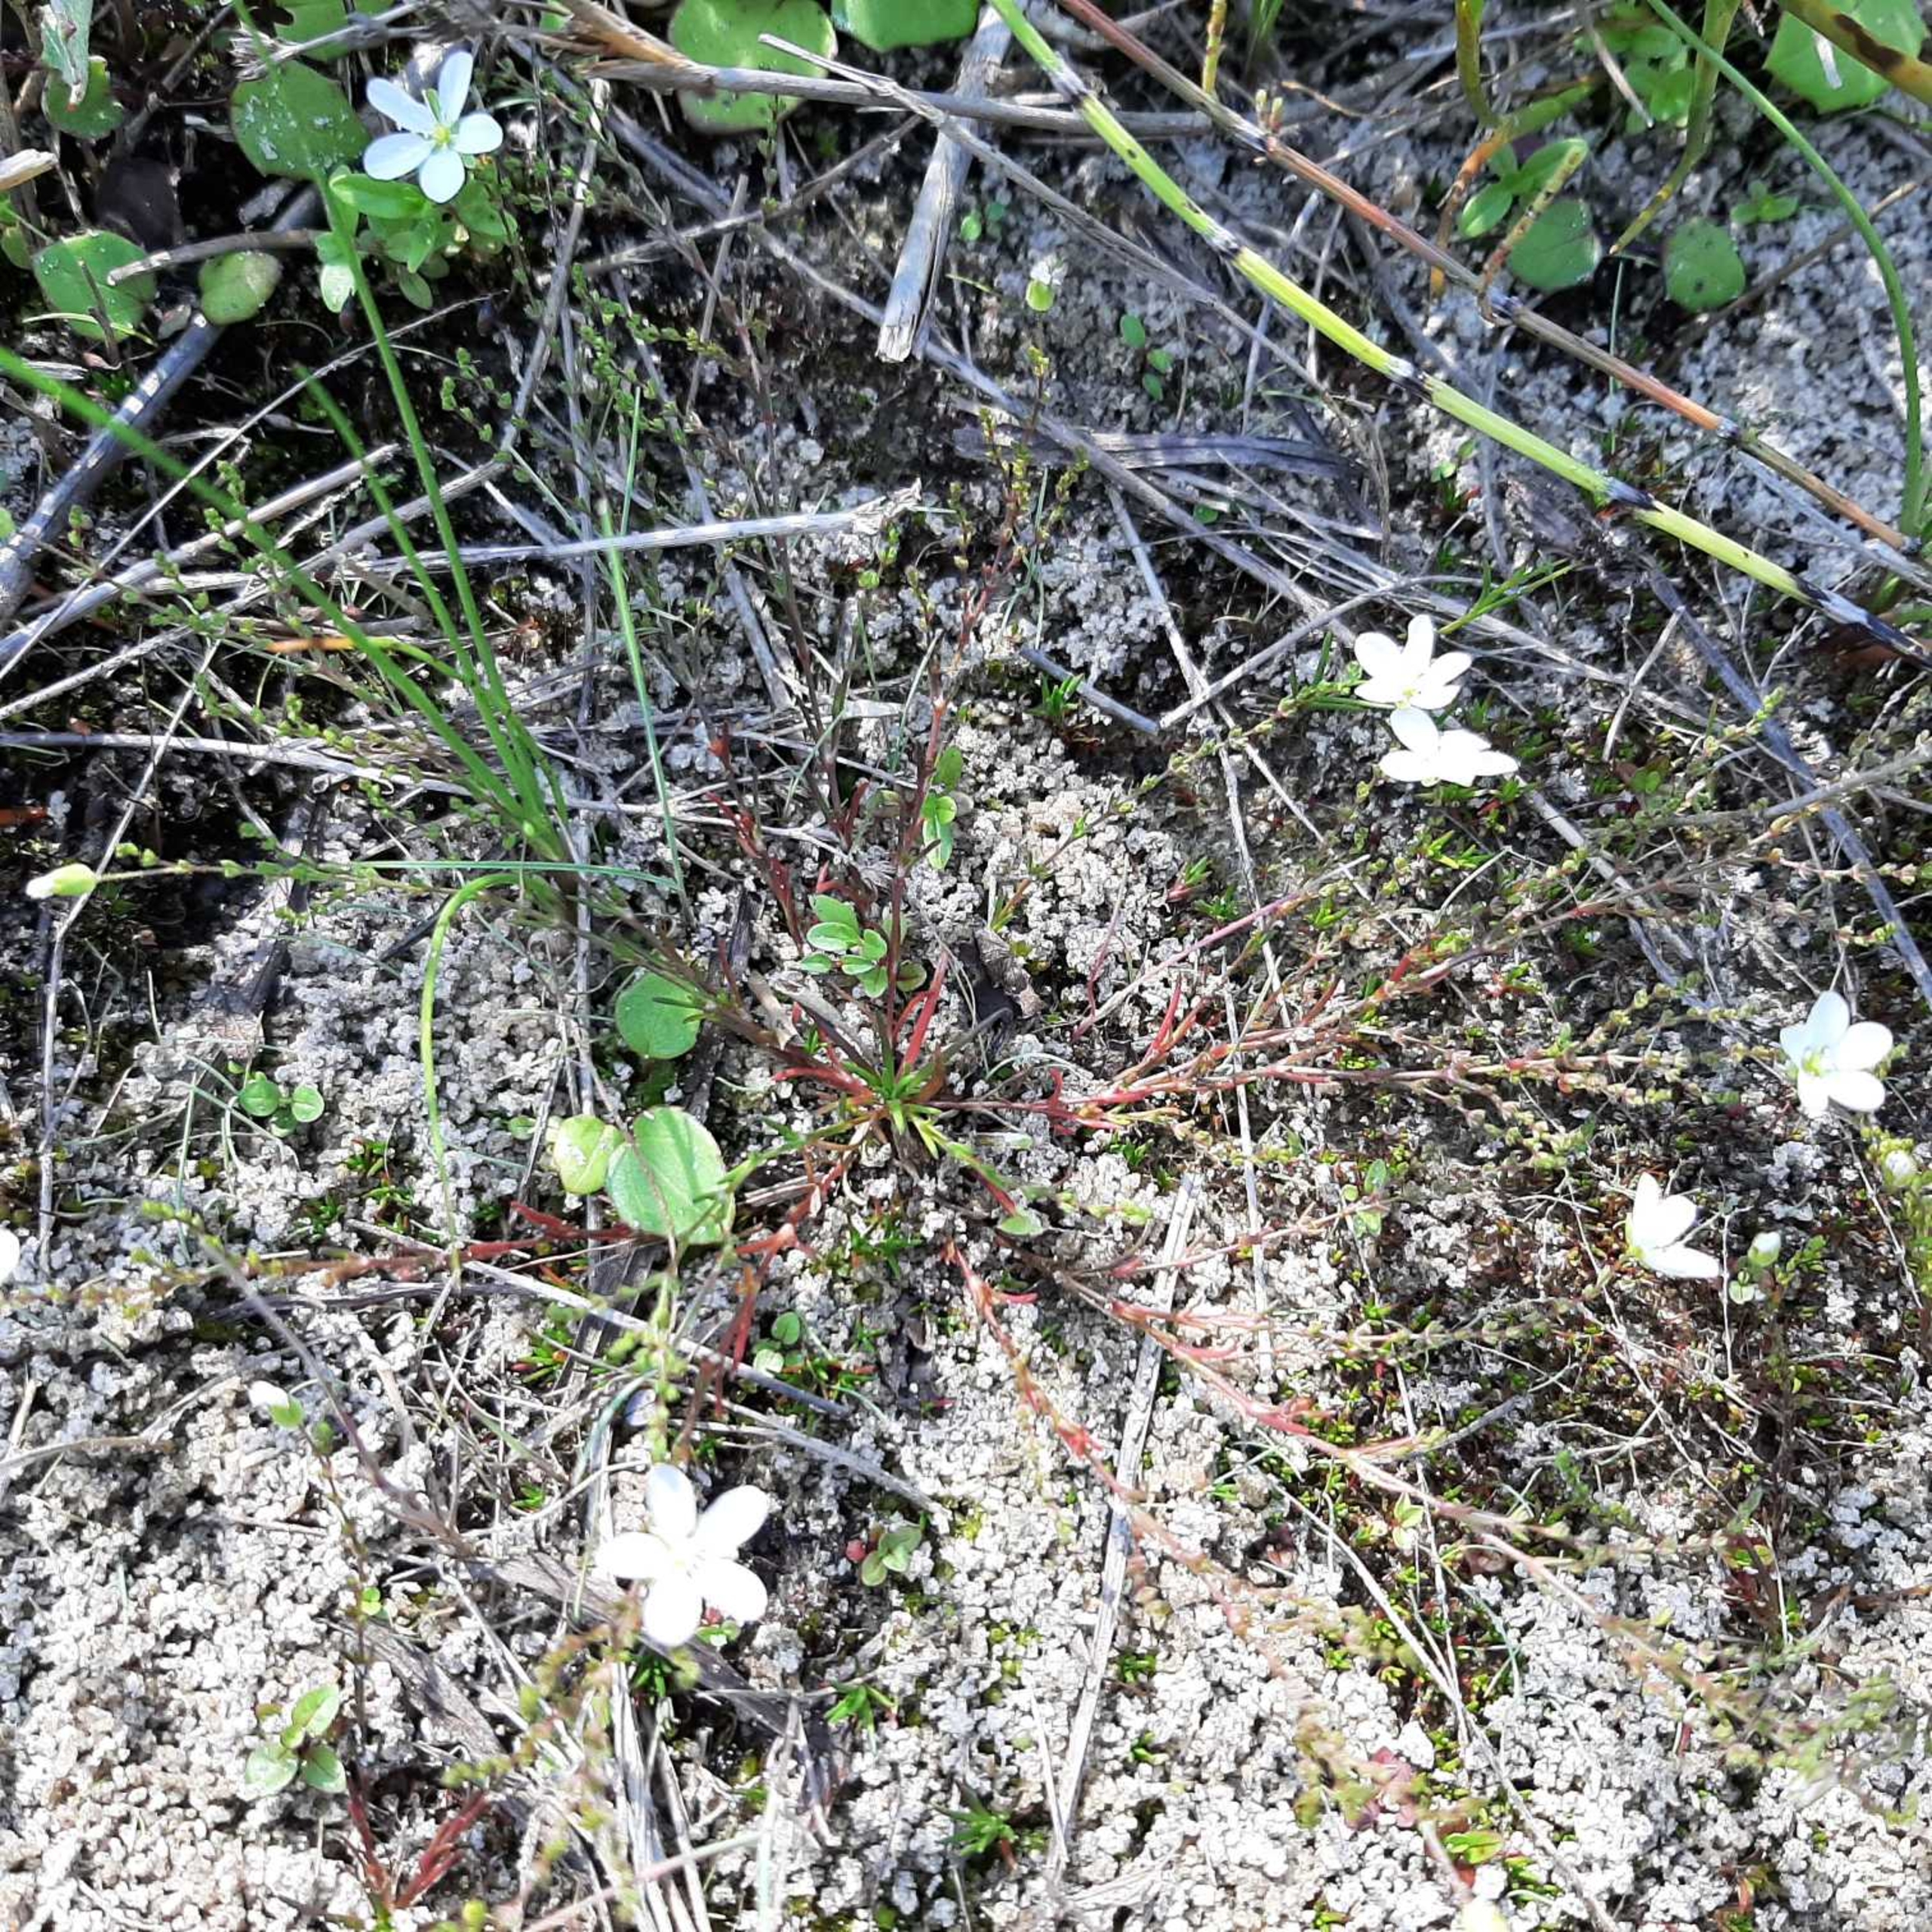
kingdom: Plantae
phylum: Tracheophyta
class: Magnoliopsida
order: Caryophyllales
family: Caryophyllaceae
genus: Sagina
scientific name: Sagina nodosa
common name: Knude-firling
